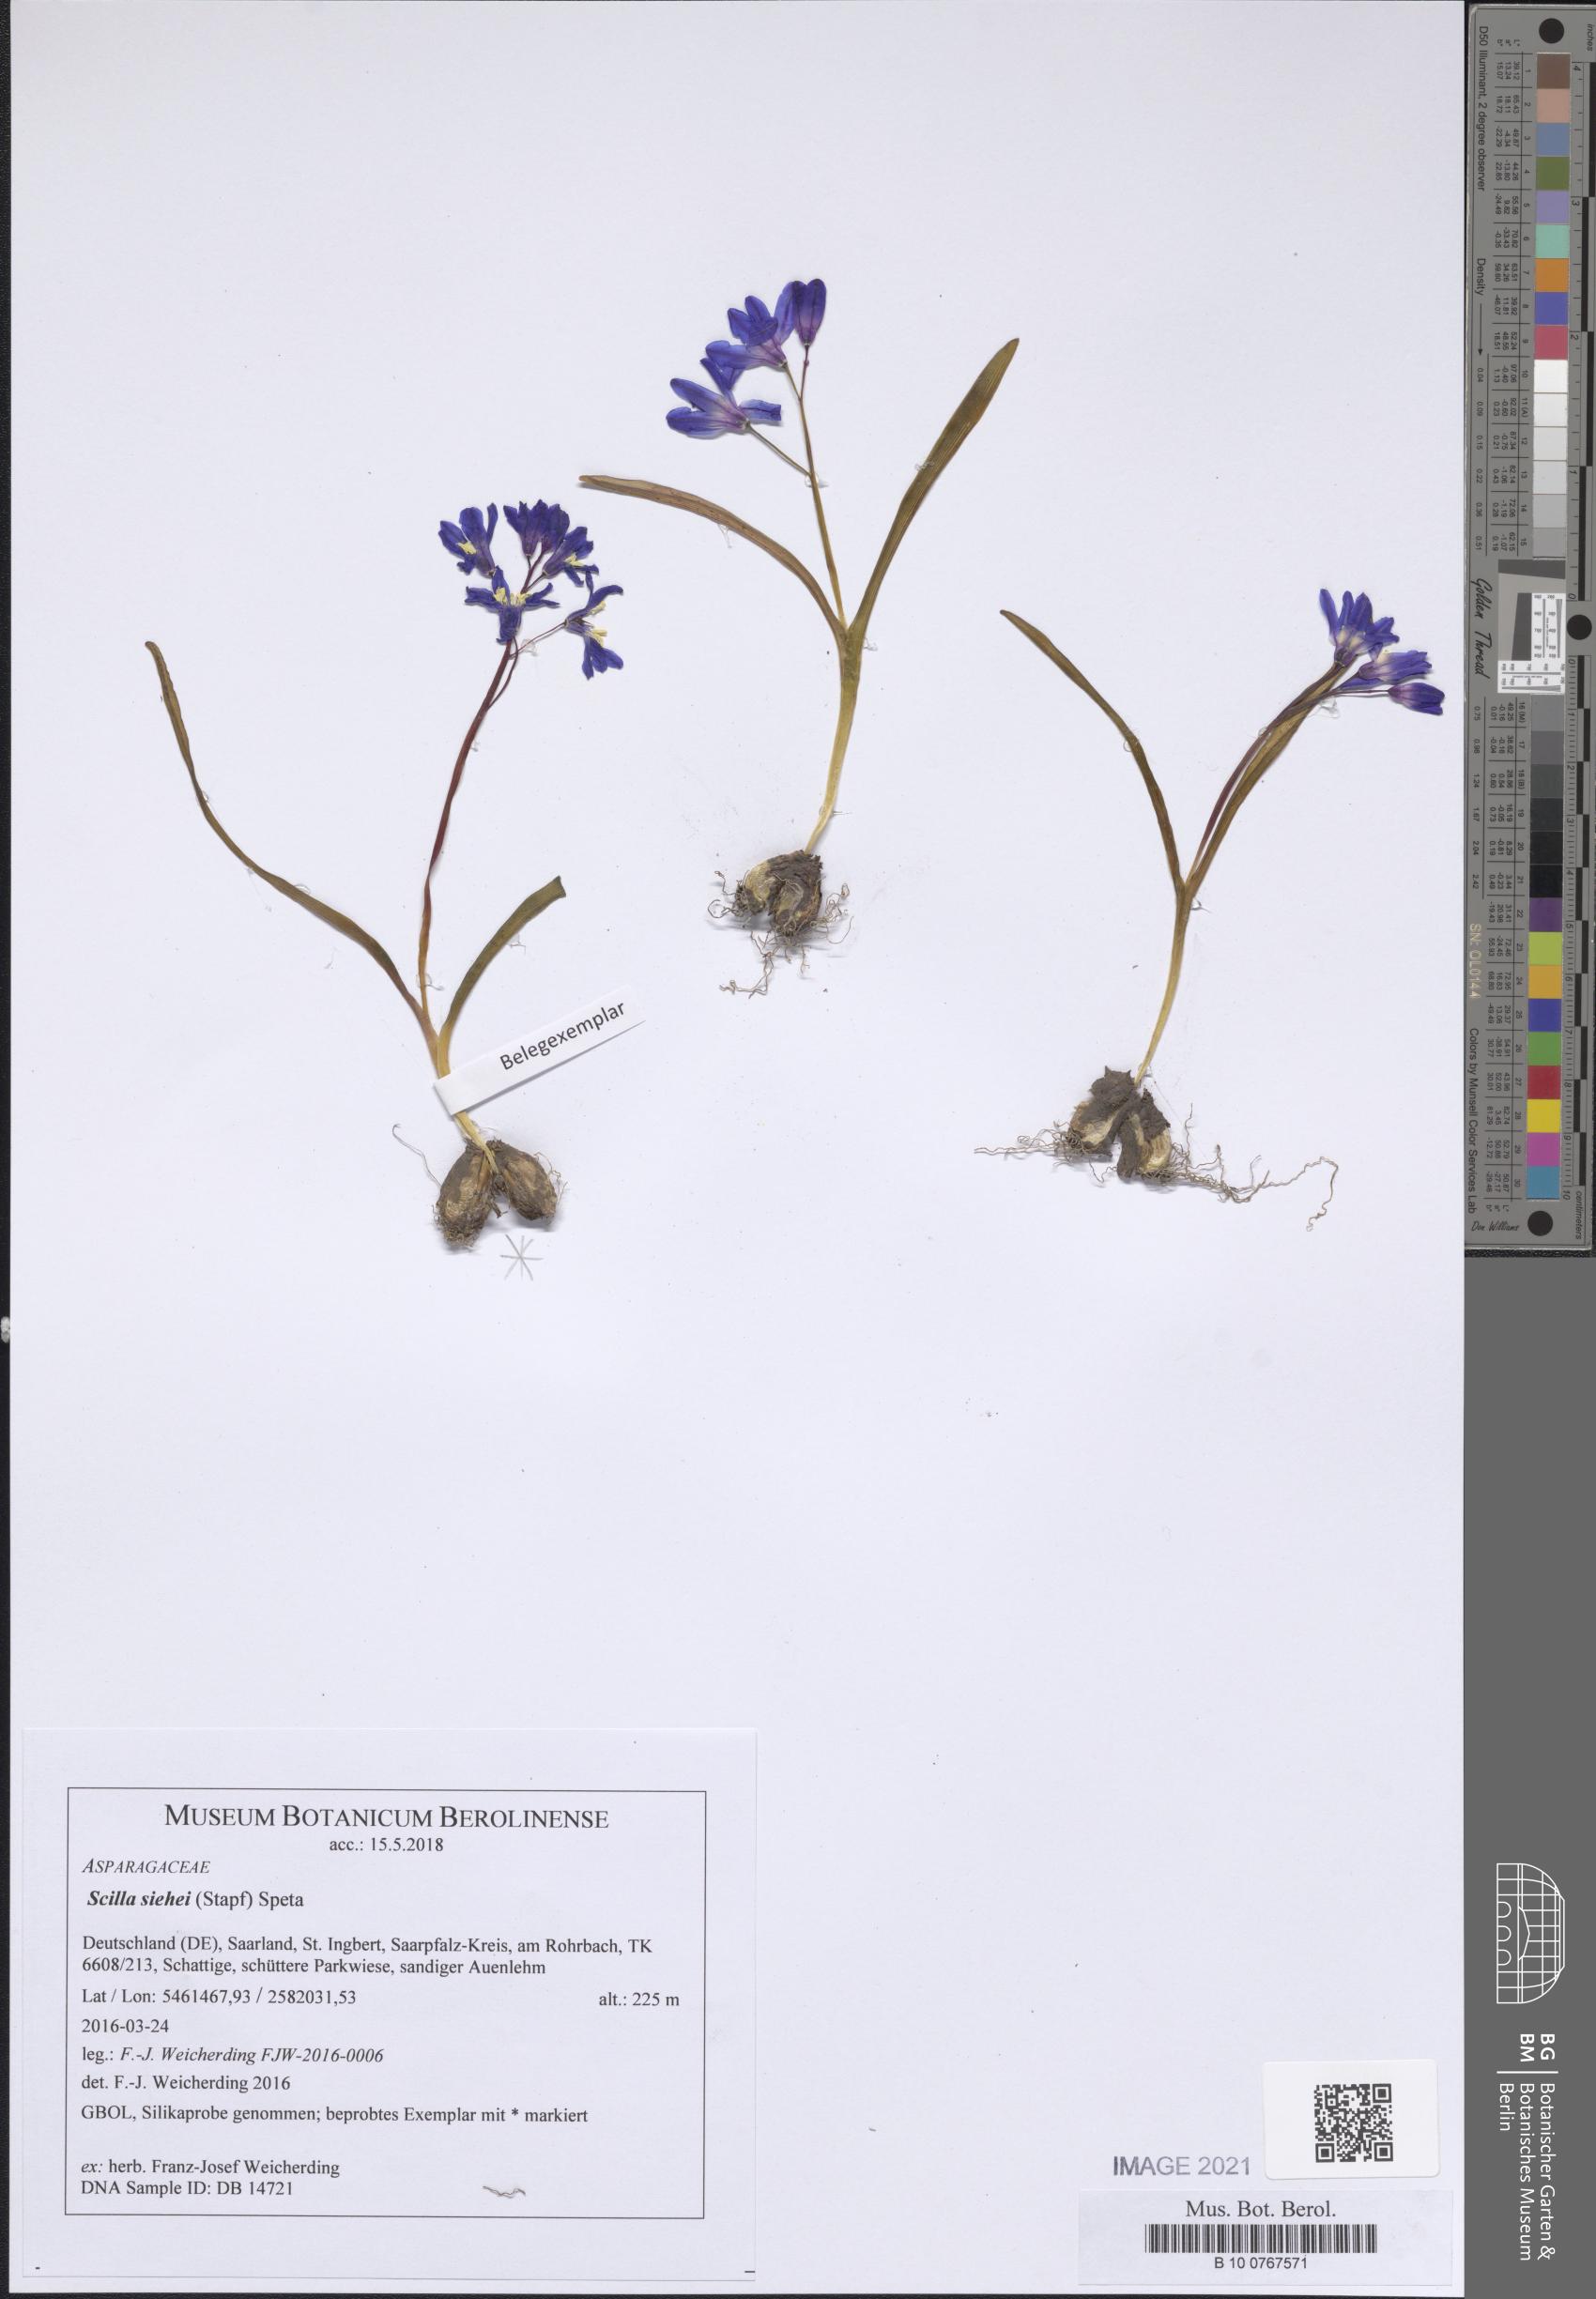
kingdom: Plantae
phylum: Tracheophyta
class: Liliopsida
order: Asparagales
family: Asparagaceae
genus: Scilla
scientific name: Scilla forbesii
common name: Glory-of-the-snow
